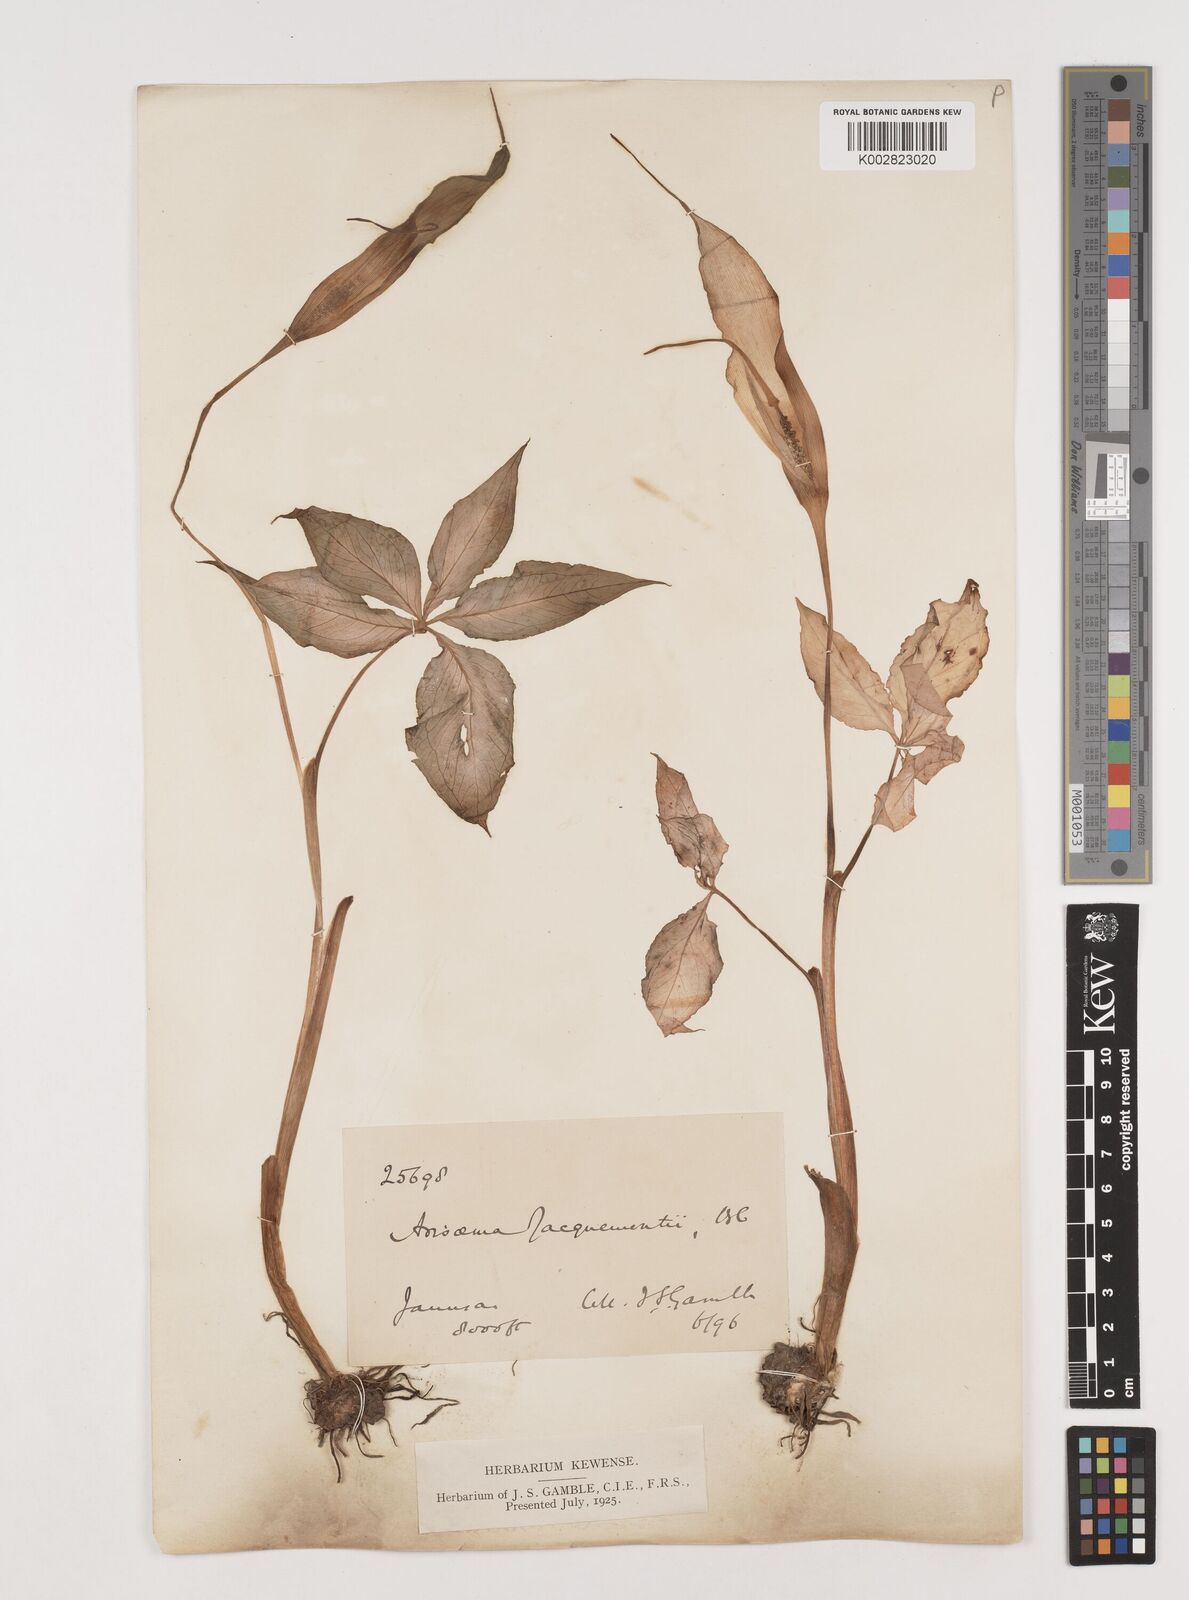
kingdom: Plantae
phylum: Tracheophyta
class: Liliopsida
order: Alismatales
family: Araceae
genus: Arisaema
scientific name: Arisaema jacquemontii
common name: Jacquemont's cobra-lily
